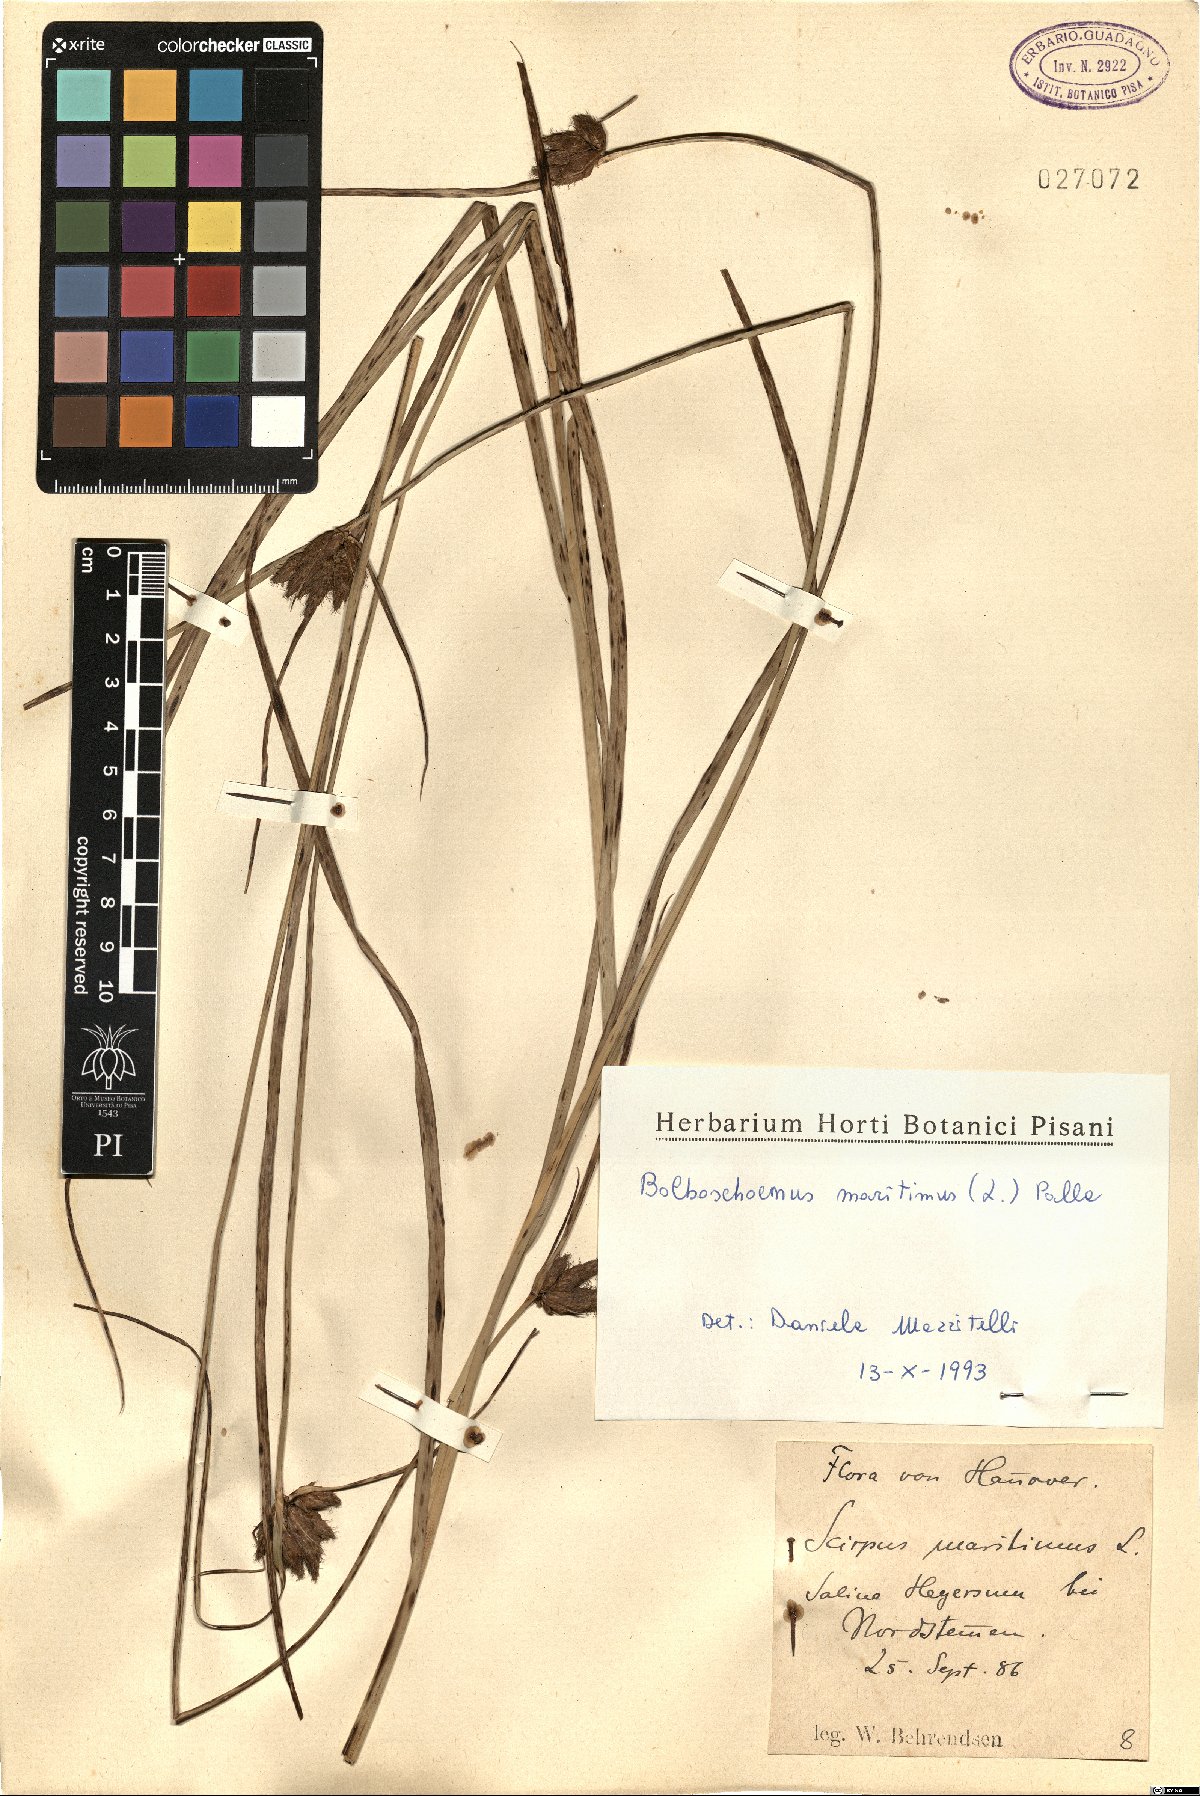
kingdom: Plantae
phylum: Tracheophyta
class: Liliopsida
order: Poales
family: Cyperaceae
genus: Bolboschoenus
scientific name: Bolboschoenus maritimus
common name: Sea club-rush
